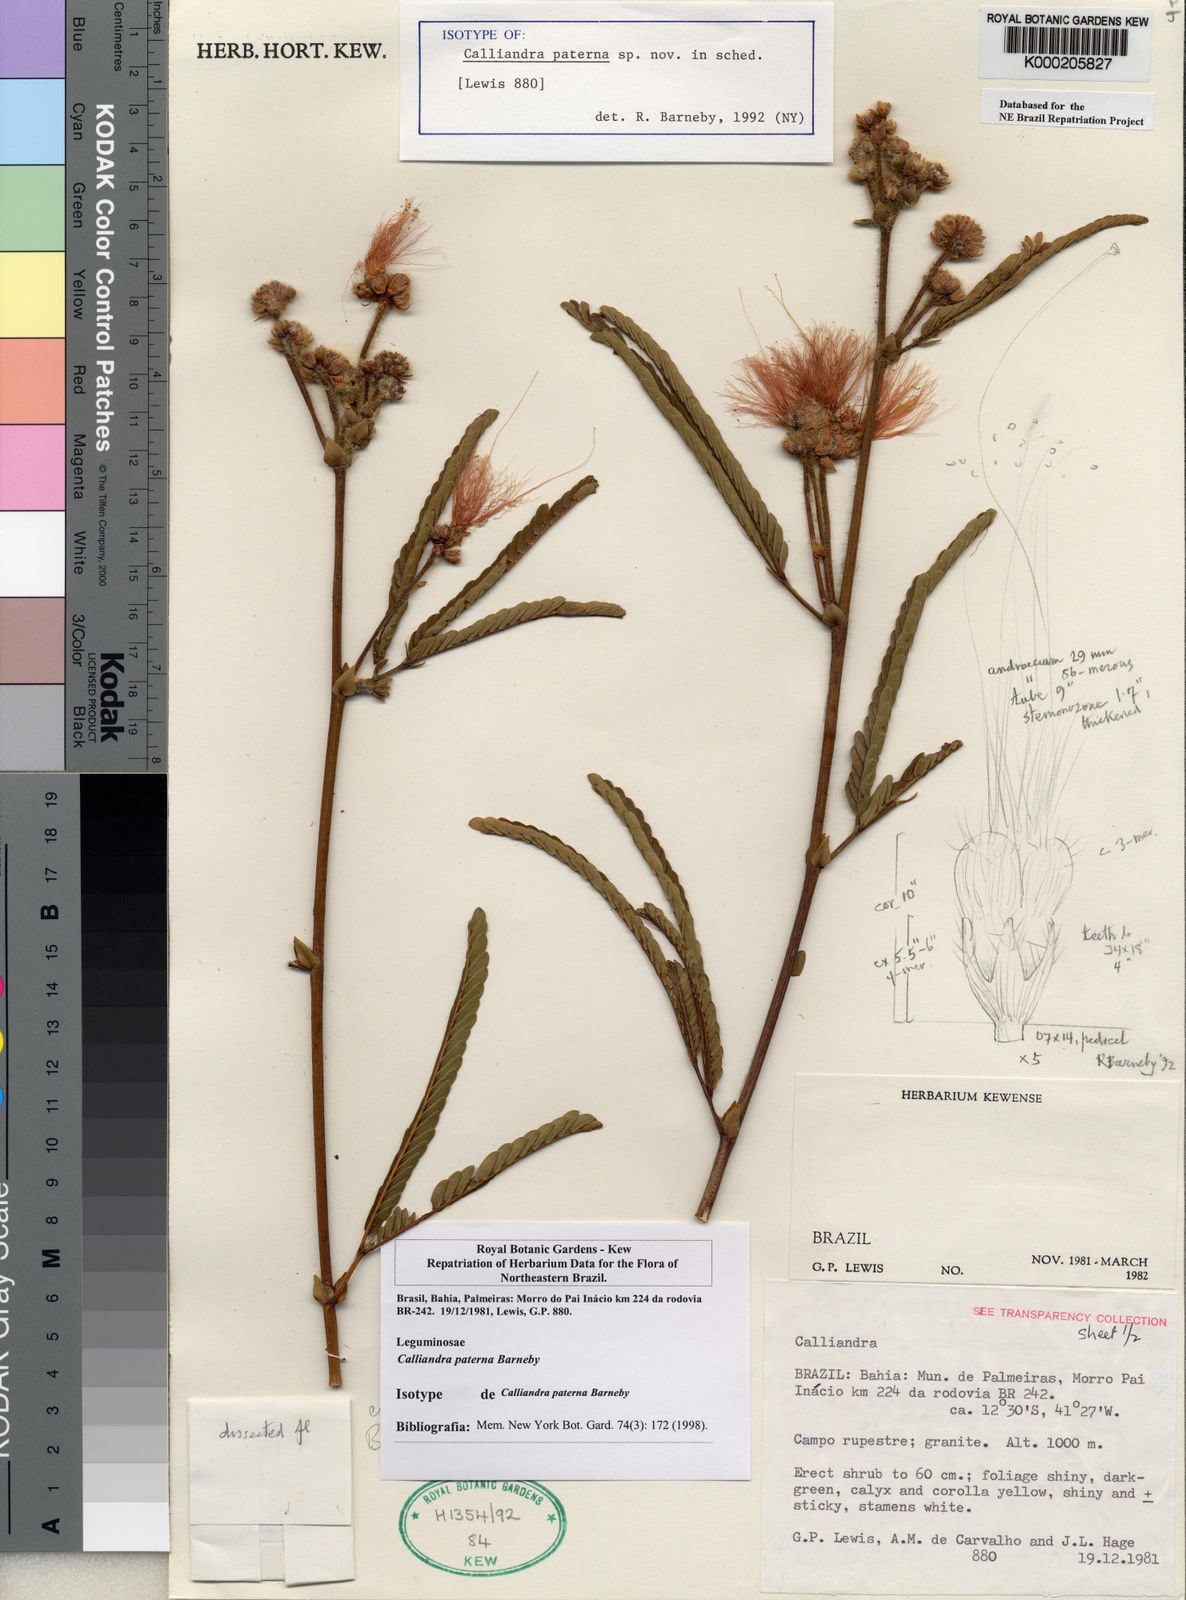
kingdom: Plantae
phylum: Tracheophyta
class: Magnoliopsida
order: Fabales
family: Fabaceae
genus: Calliandra
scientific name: Calliandra paterna
